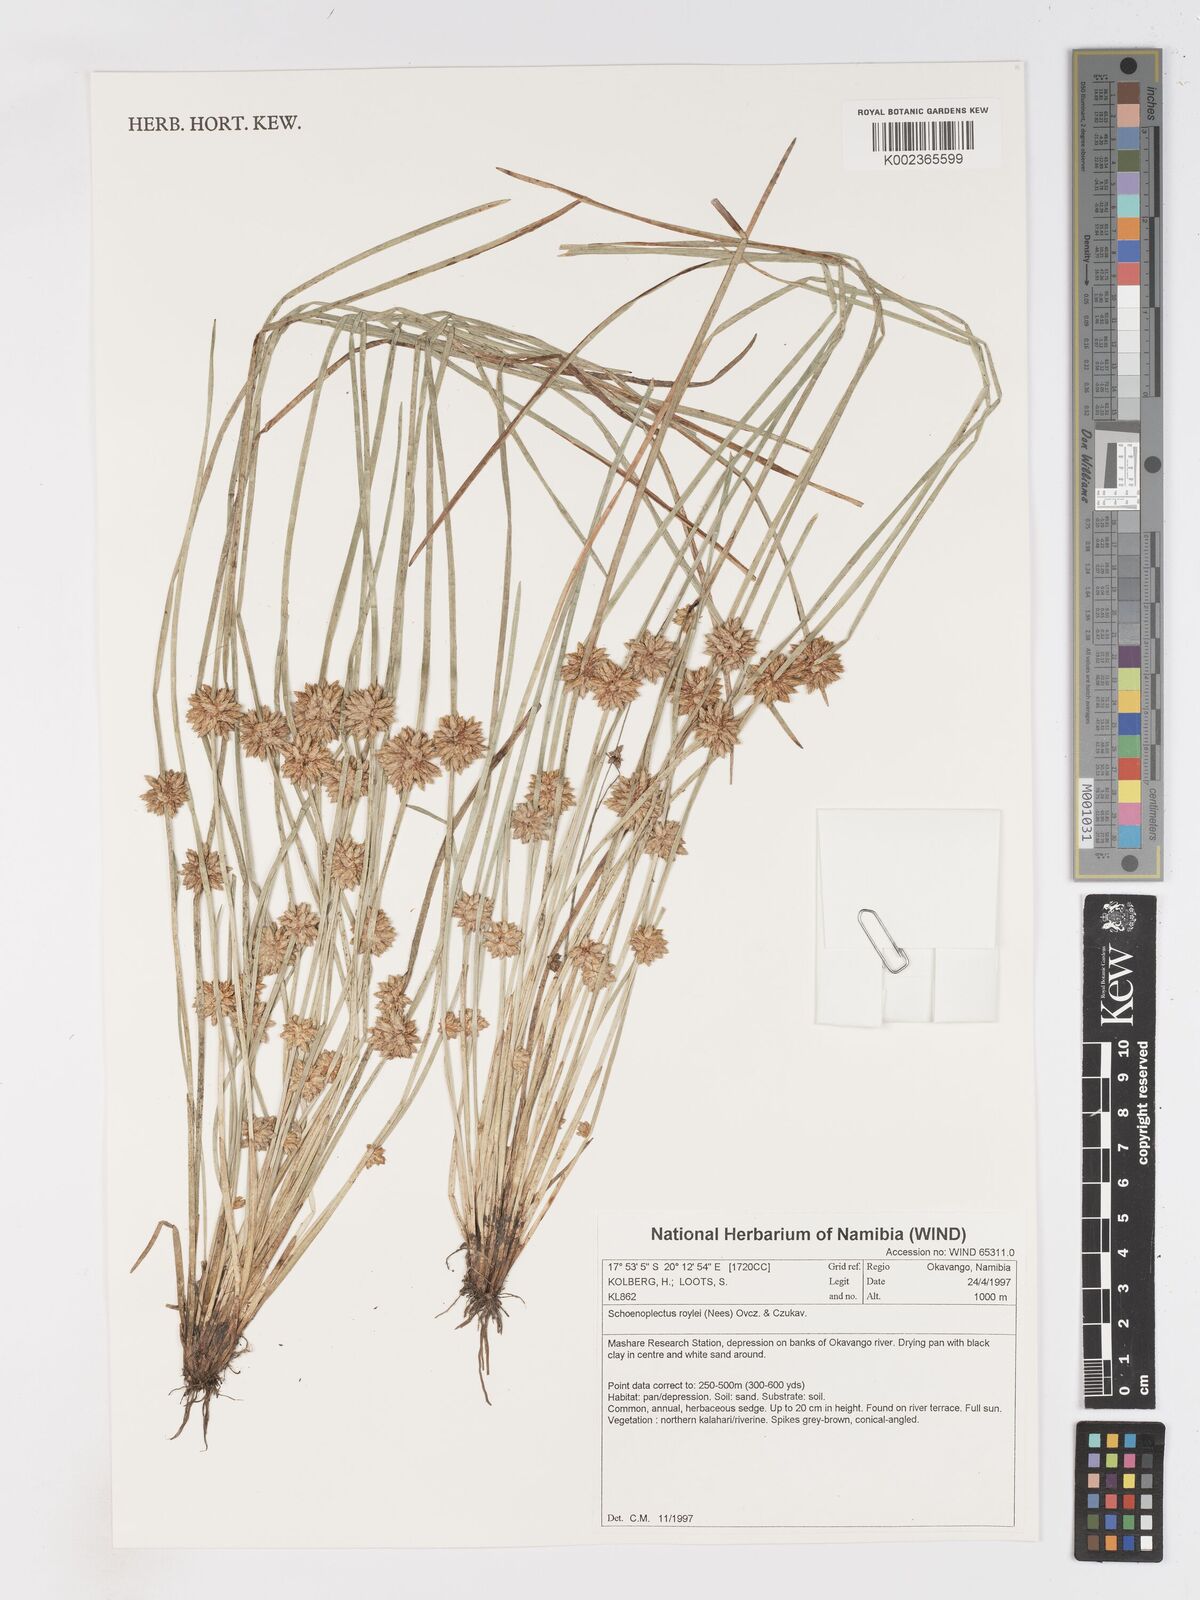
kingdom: Plantae
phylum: Tracheophyta
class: Liliopsida
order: Poales
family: Cyperaceae
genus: Schoenoplectiella
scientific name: Schoenoplectiella roylei
